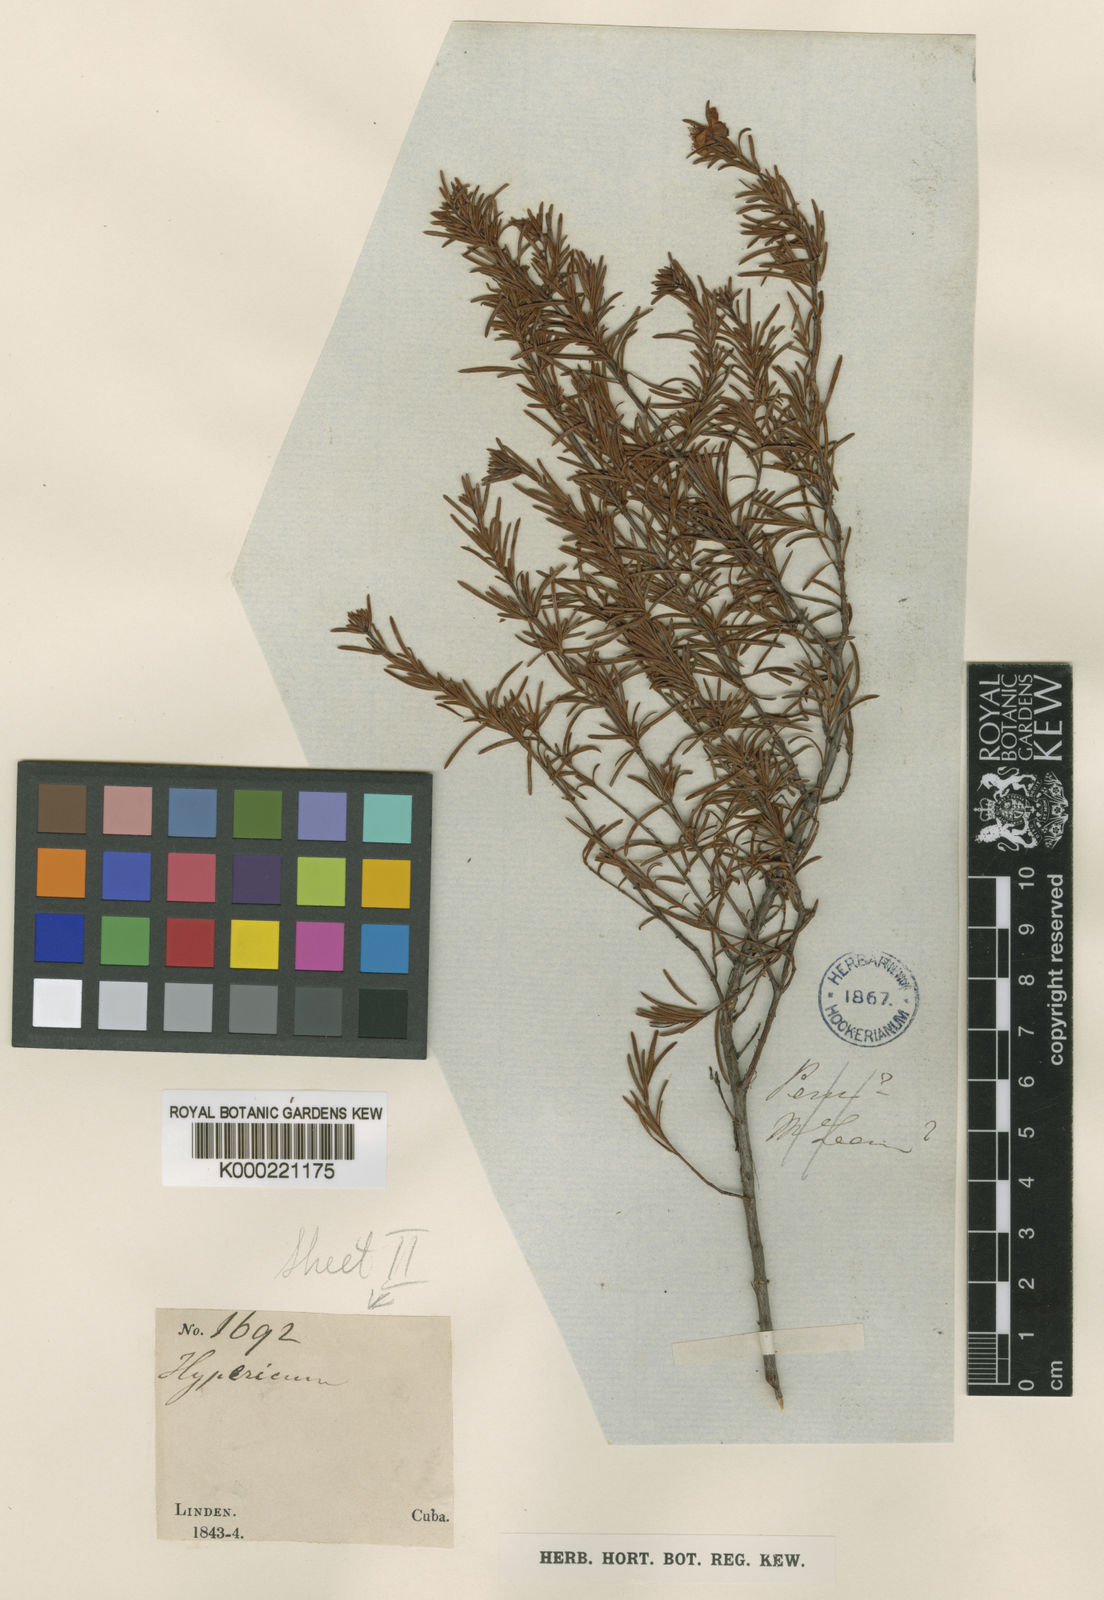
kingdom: Plantae
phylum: Tracheophyta
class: Magnoliopsida
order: Malpighiales
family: Hypericaceae
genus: Hypericum
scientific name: Hypericum nitidum
